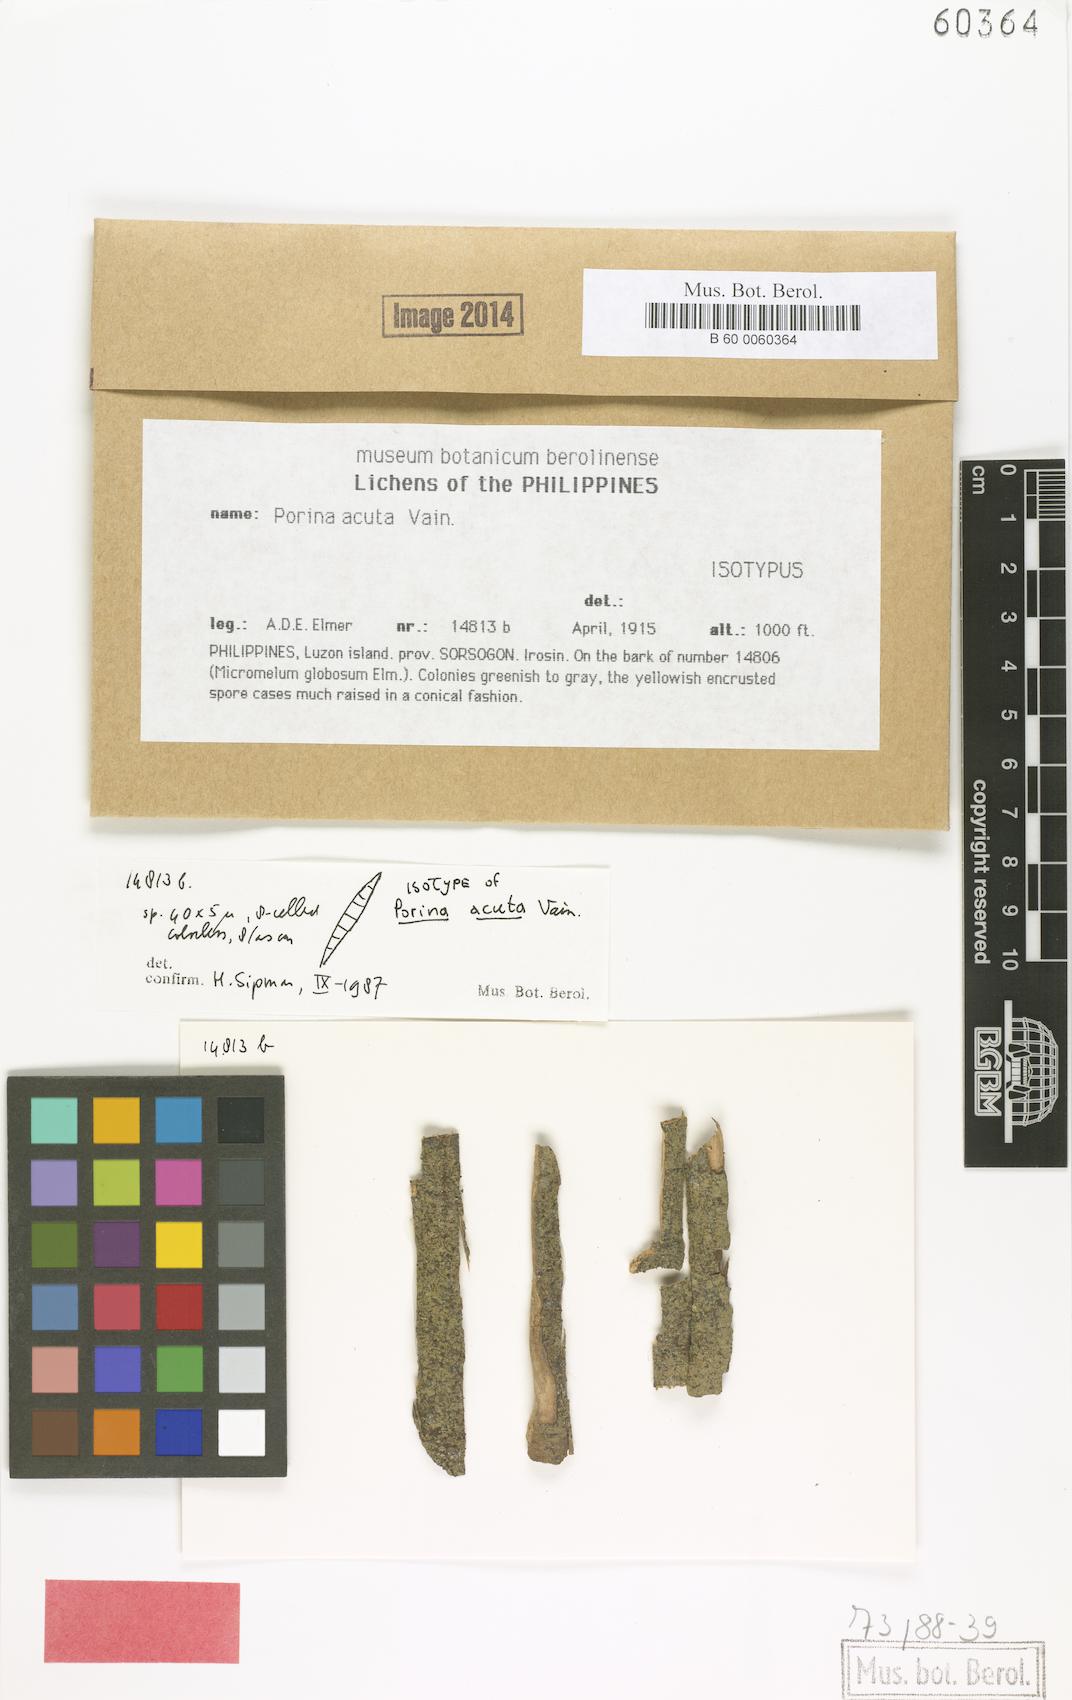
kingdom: Fungi
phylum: Ascomycota
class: Lecanoromycetes
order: Ostropales
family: Porinaceae
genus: Porina
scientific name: Porina
